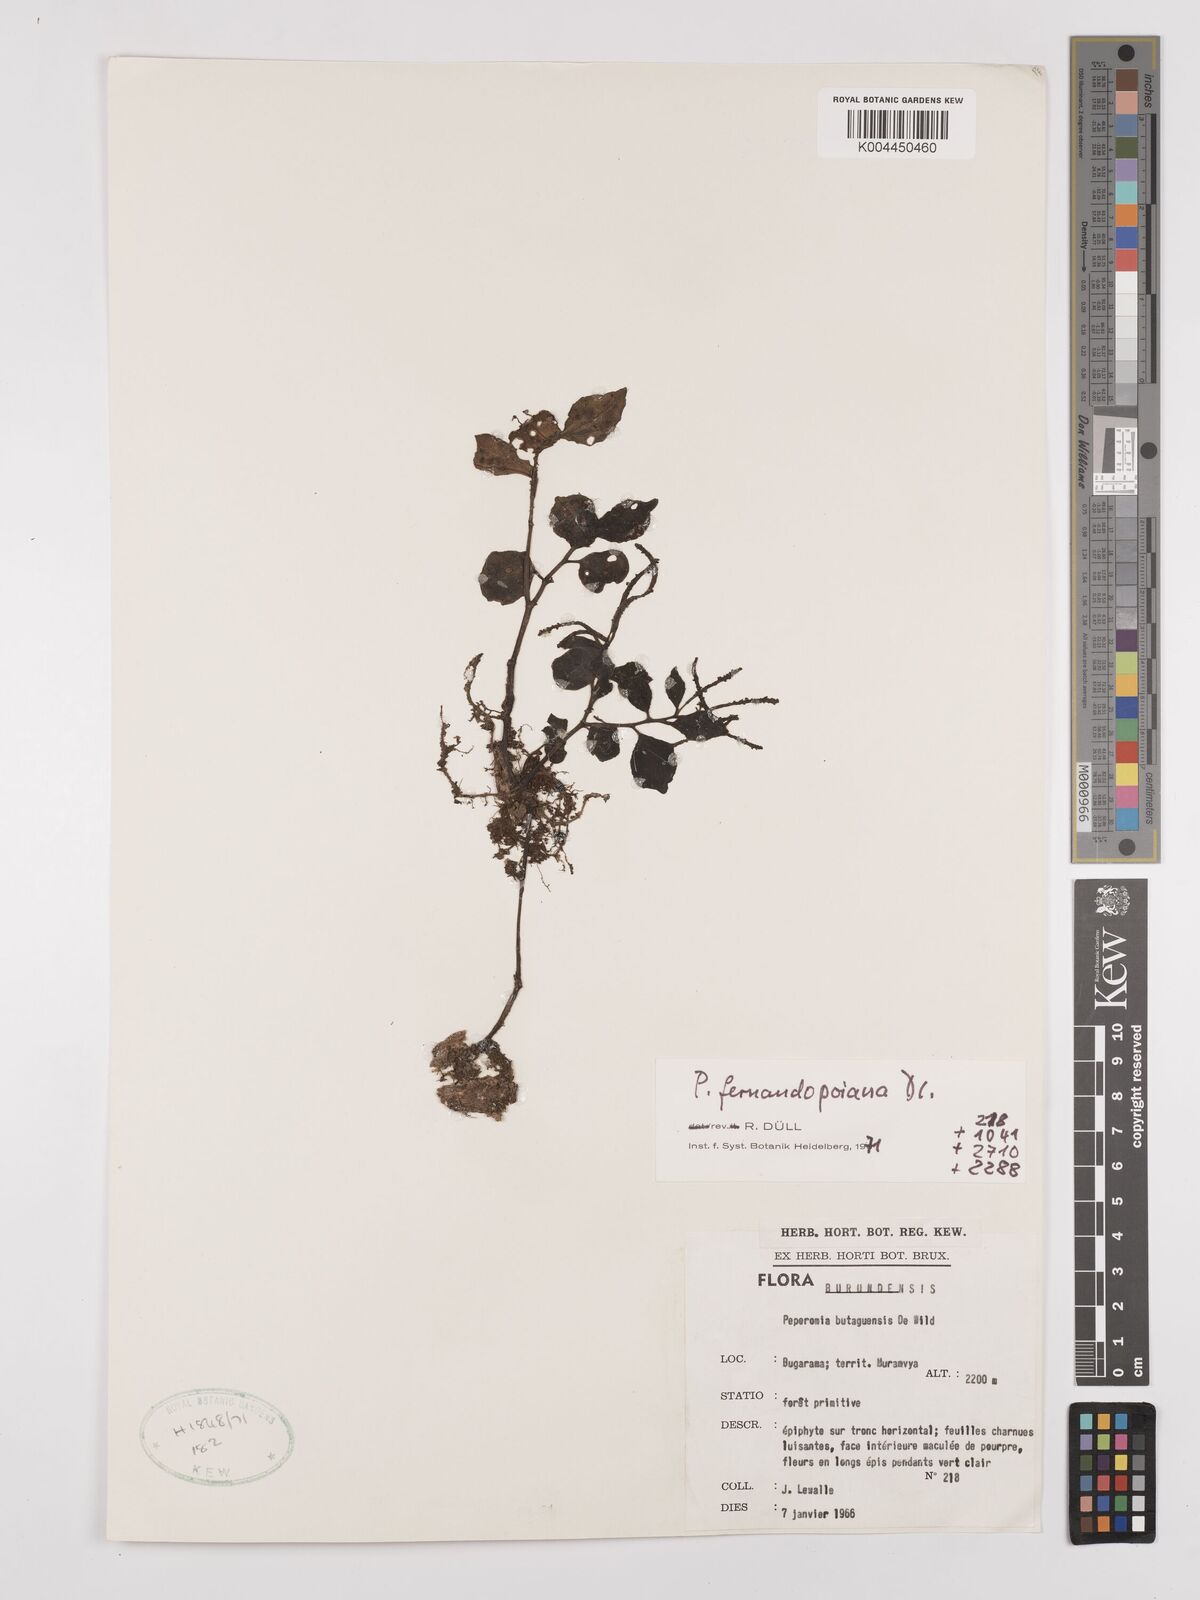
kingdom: Plantae
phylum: Tracheophyta
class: Magnoliopsida
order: Piperales
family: Piperaceae
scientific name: Piperaceae
